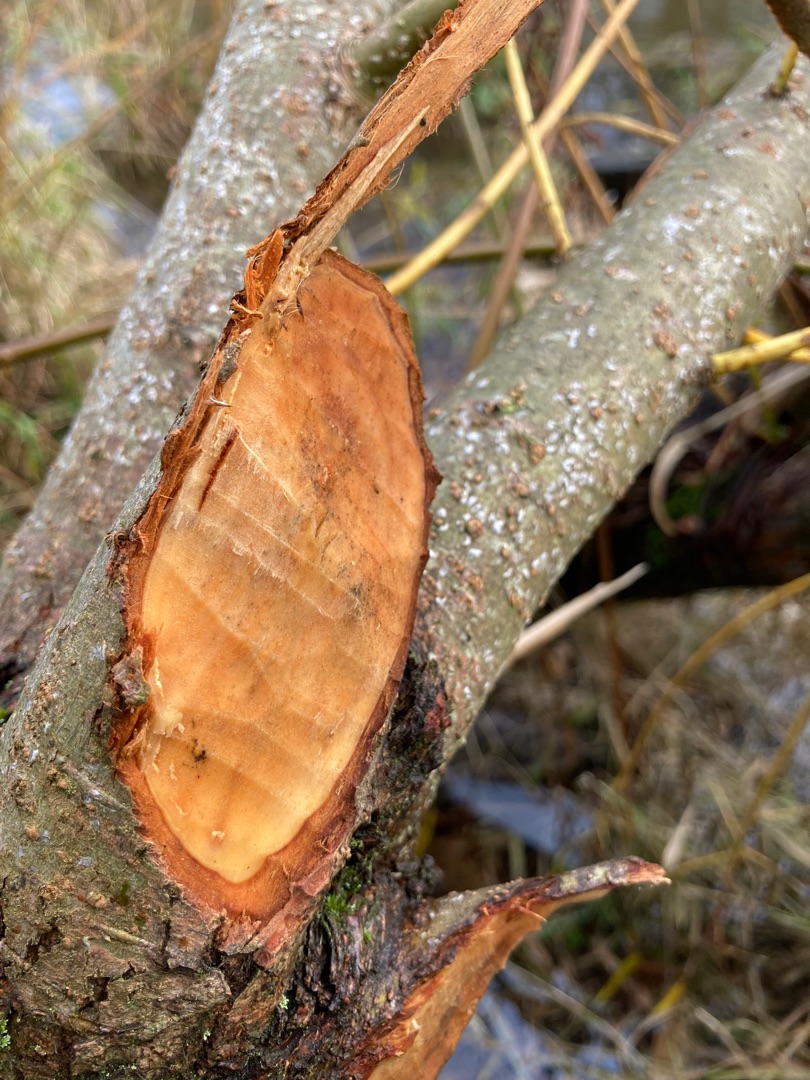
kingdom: Animalia
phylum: Chordata
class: Mammalia
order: Rodentia
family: Castoridae
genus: Castor
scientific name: Castor fiber
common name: Bæver
